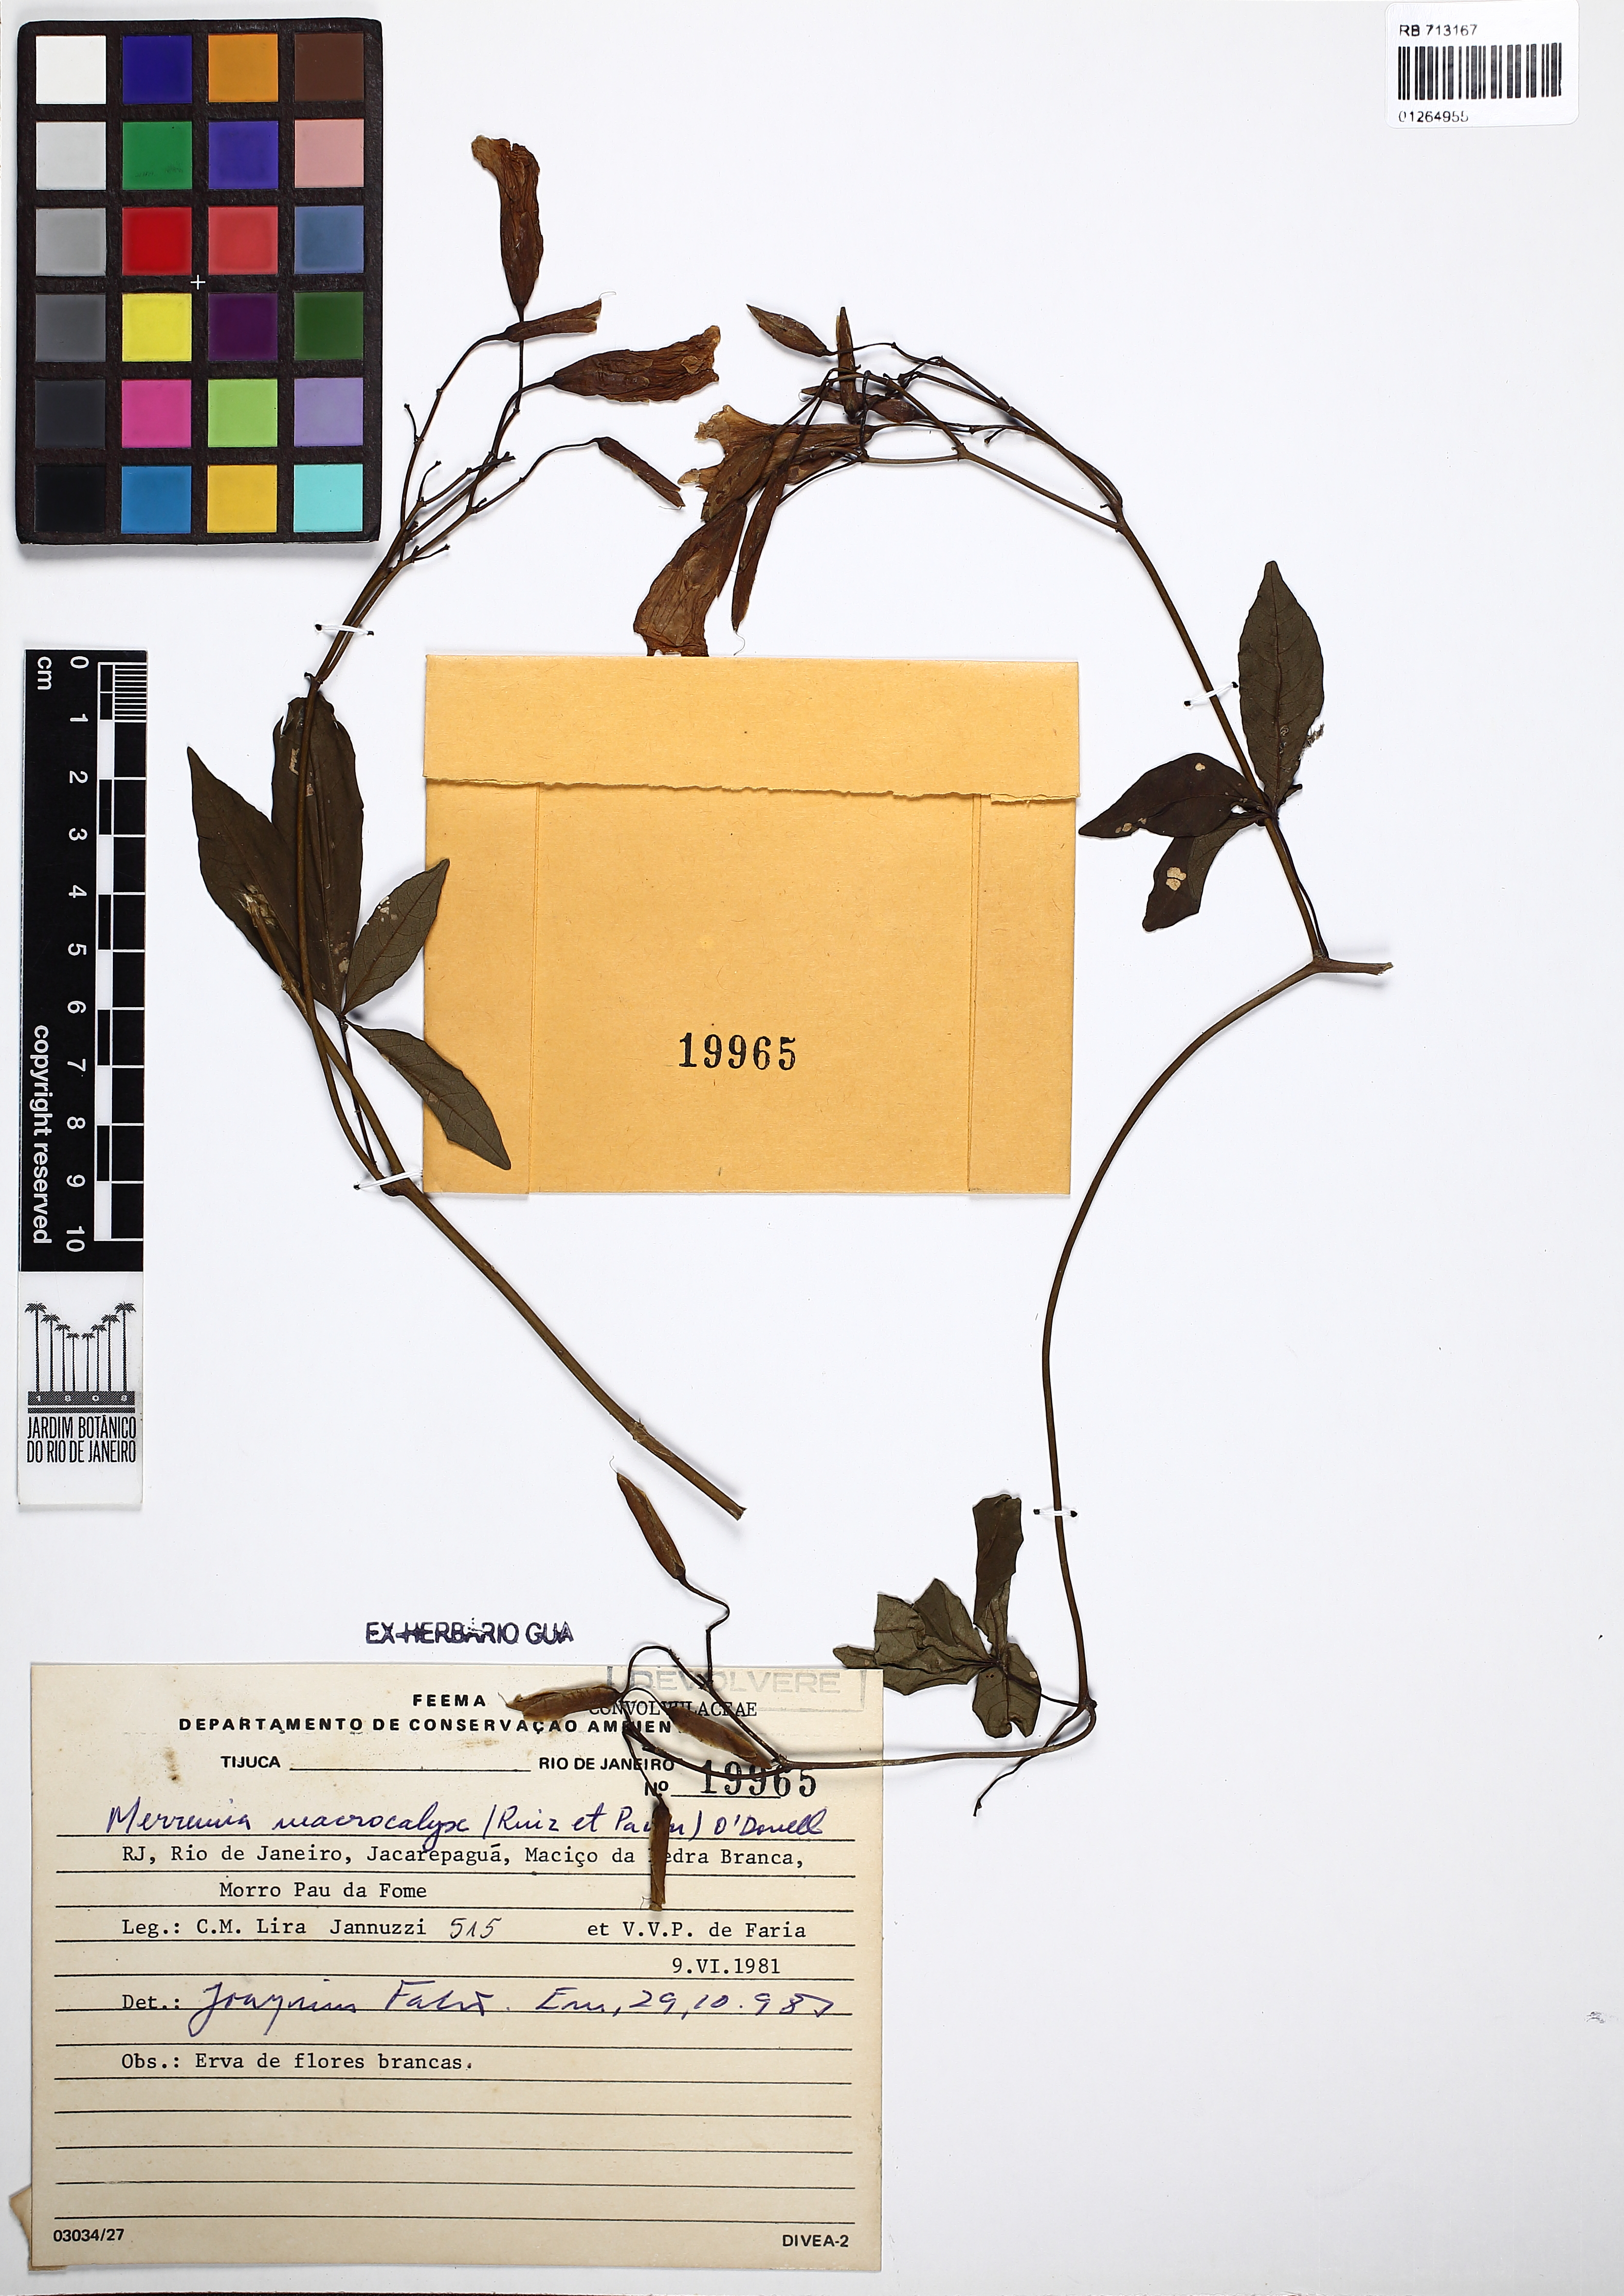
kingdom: Plantae
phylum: Tracheophyta
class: Magnoliopsida
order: Solanales
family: Convolvulaceae
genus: Distimake
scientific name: Distimake macrocalyx
